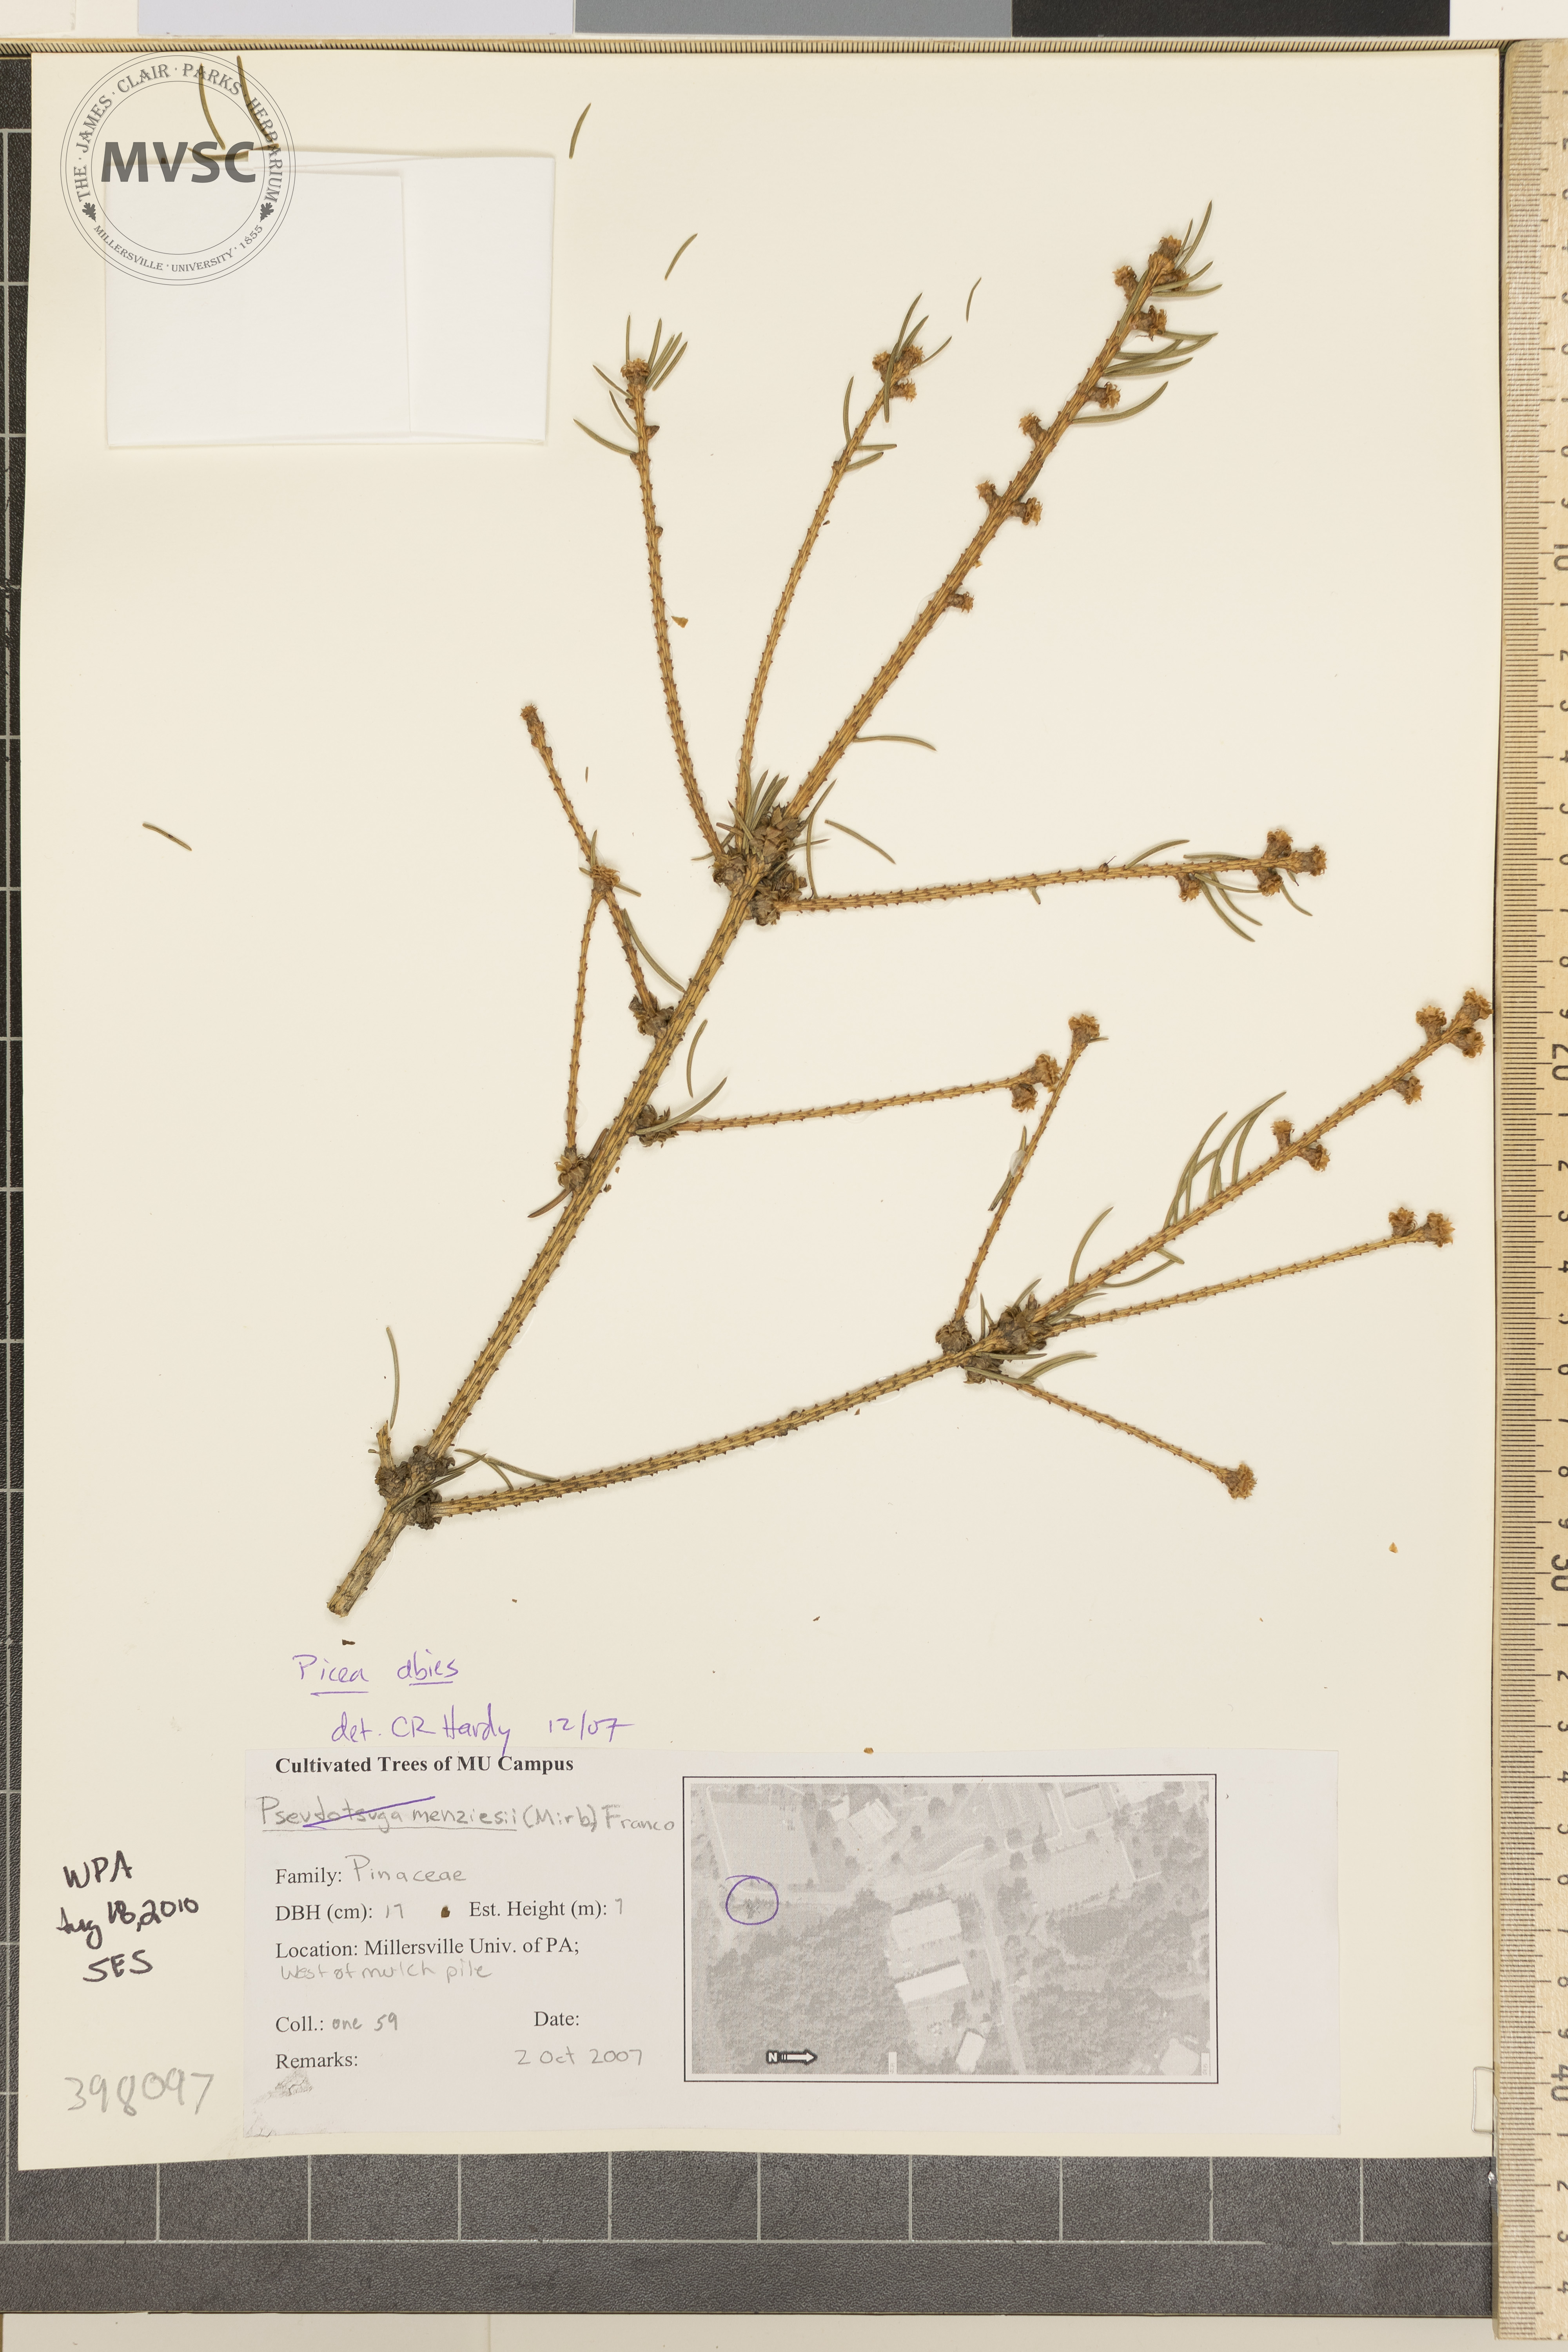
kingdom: Plantae
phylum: Tracheophyta
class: Pinopsida
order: Pinales
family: Pinaceae
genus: Picea
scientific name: Picea abies
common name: Norway spruce
